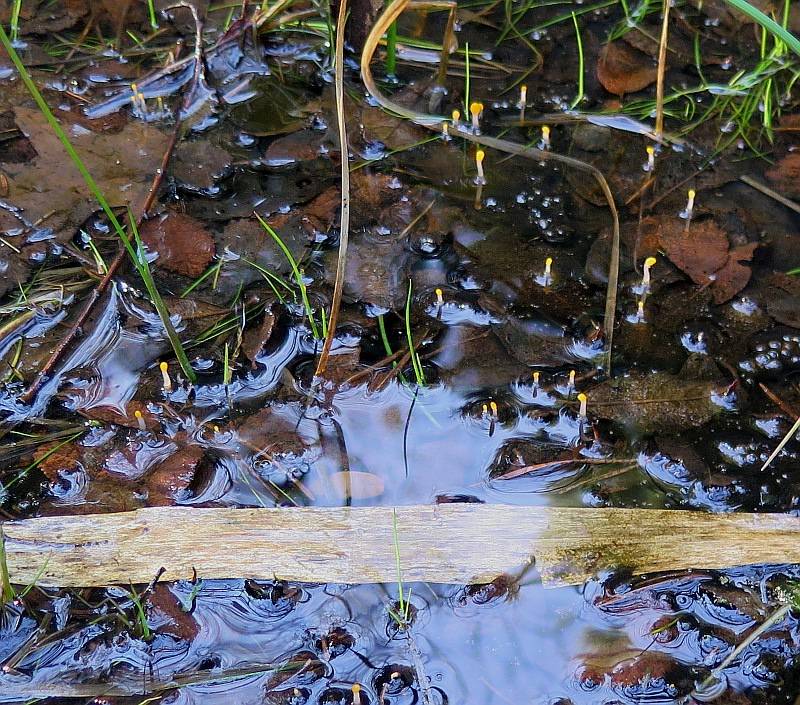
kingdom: Fungi
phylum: Ascomycota
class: Leotiomycetes
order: Helotiales
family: Cenangiaceae
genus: Mitrula
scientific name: Mitrula paludosa
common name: gul nøkketunge
